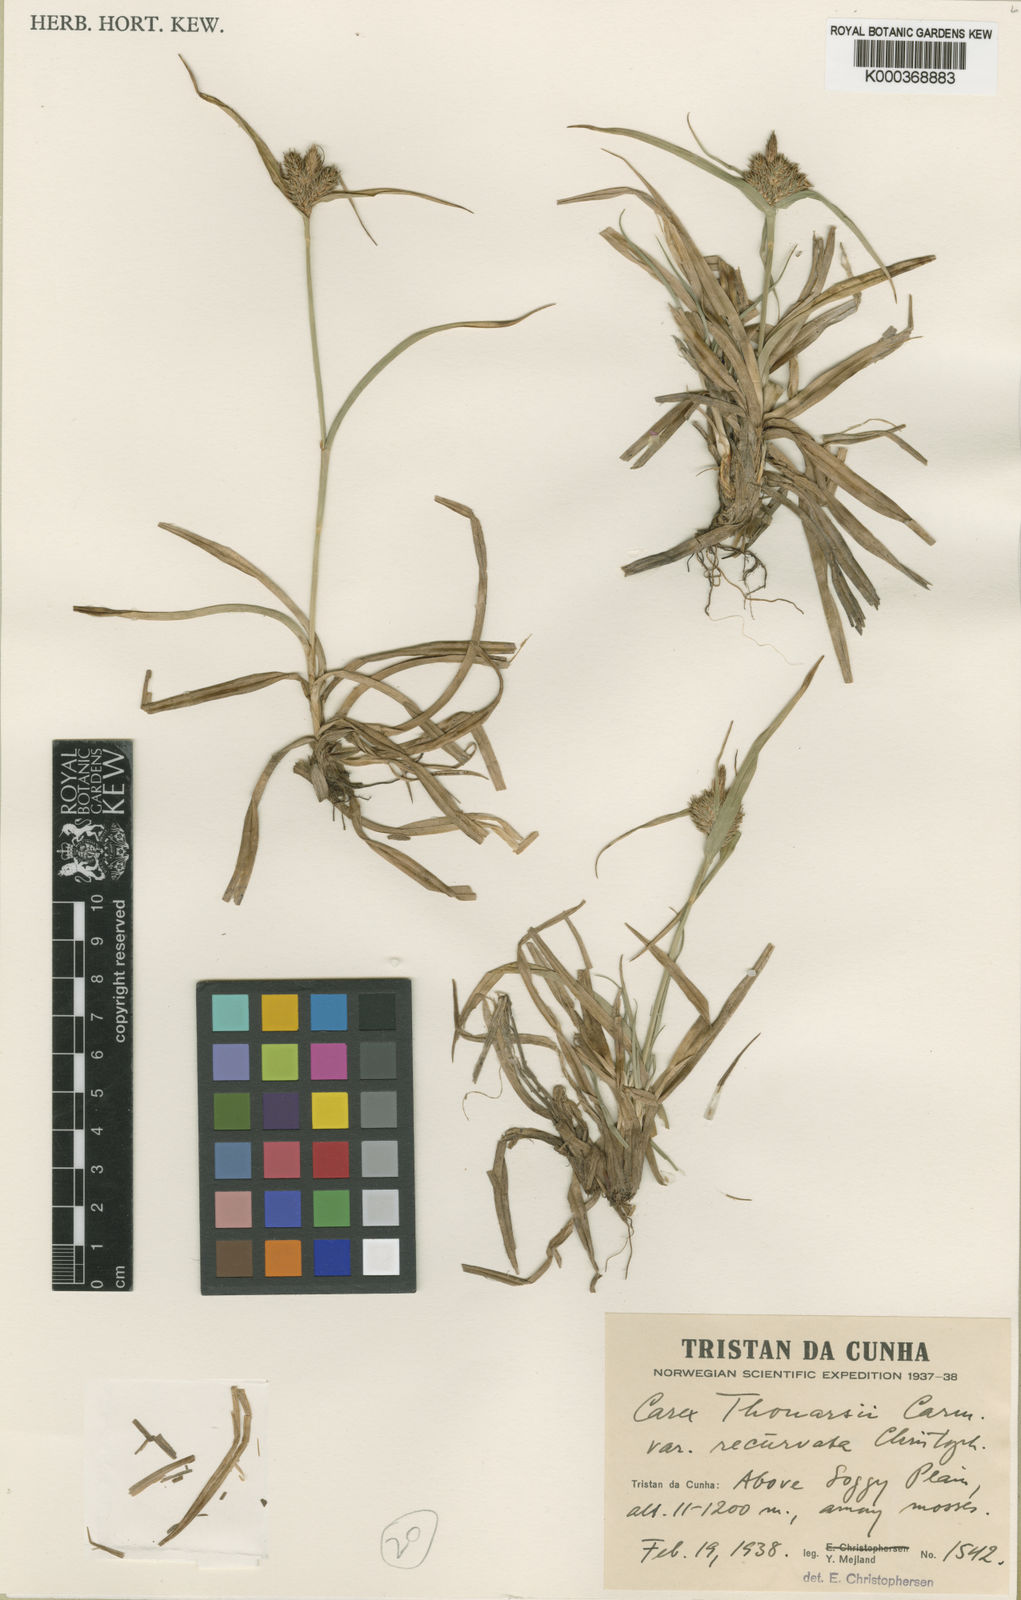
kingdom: Plantae
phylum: Tracheophyta
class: Liliopsida
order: Poales
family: Cyperaceae
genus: Carex
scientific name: Carex thouarsii
